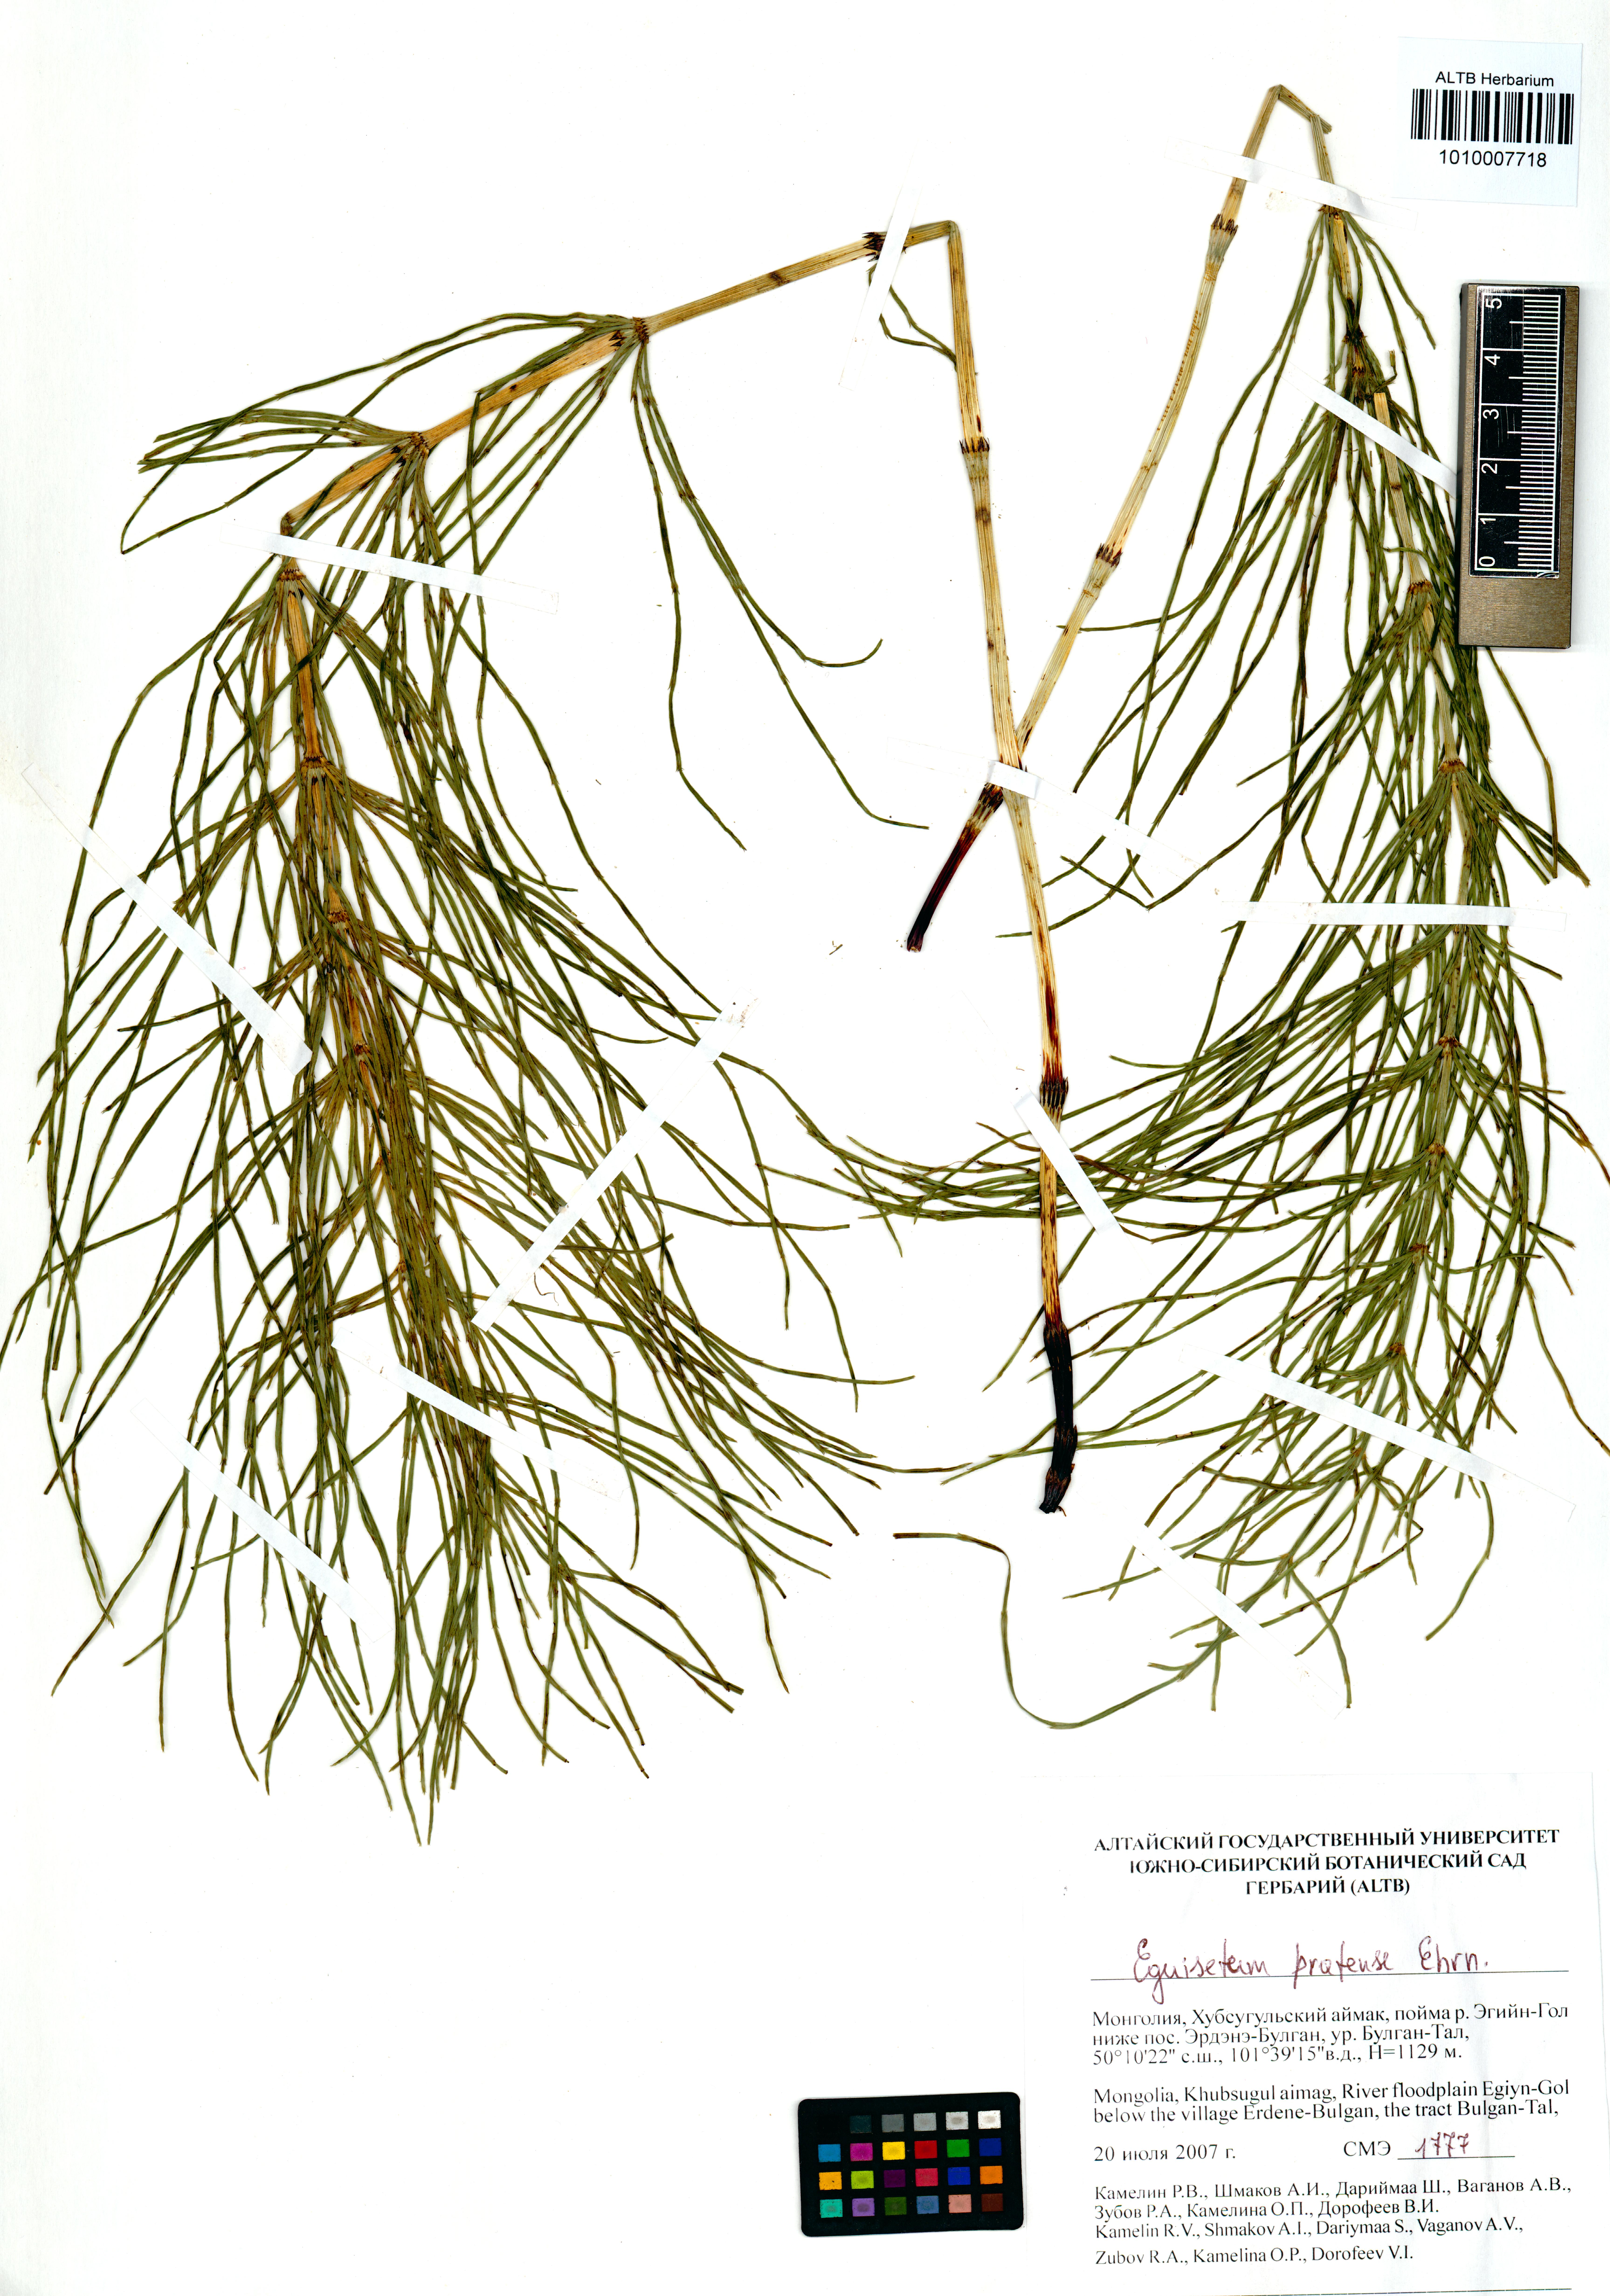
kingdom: Plantae
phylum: Tracheophyta
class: Polypodiopsida
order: Equisetales
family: Equisetaceae
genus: Equisetum
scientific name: Equisetum pratense
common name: Meadow horsetail
